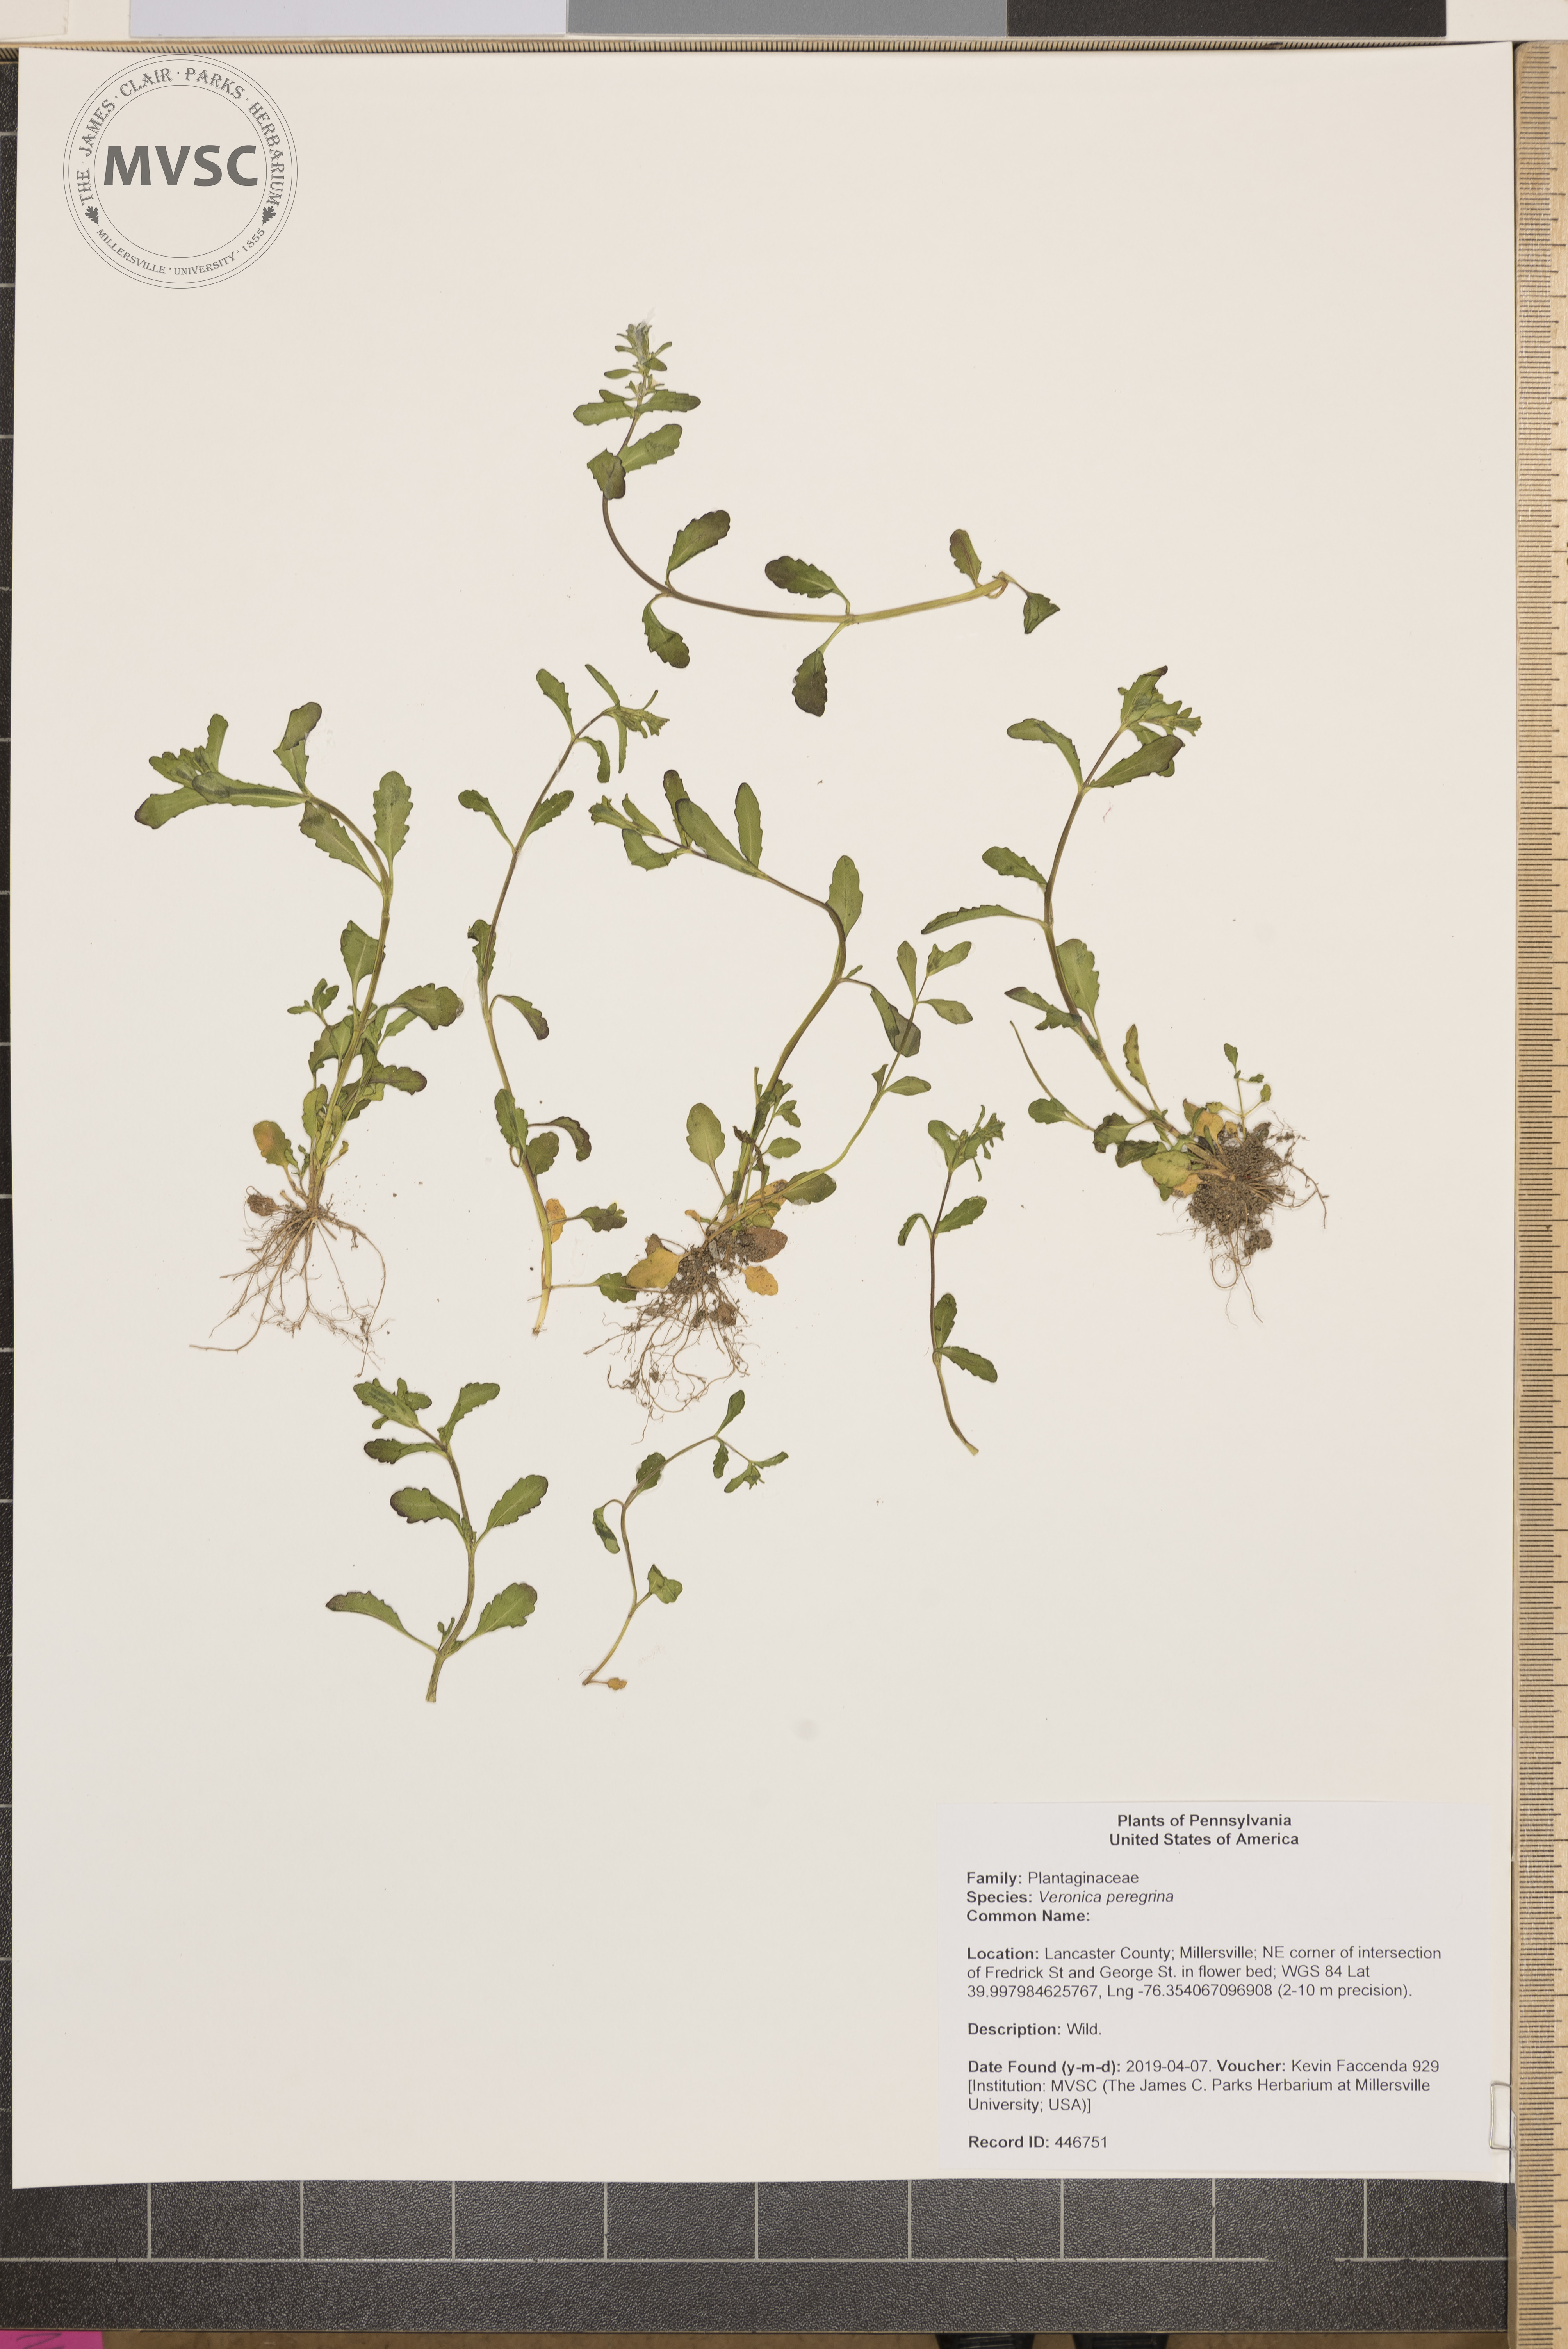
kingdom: Plantae
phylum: Tracheophyta
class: Magnoliopsida
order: Lamiales
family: Plantaginaceae
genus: Veronica
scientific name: Veronica peregrina
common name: Neckweed
